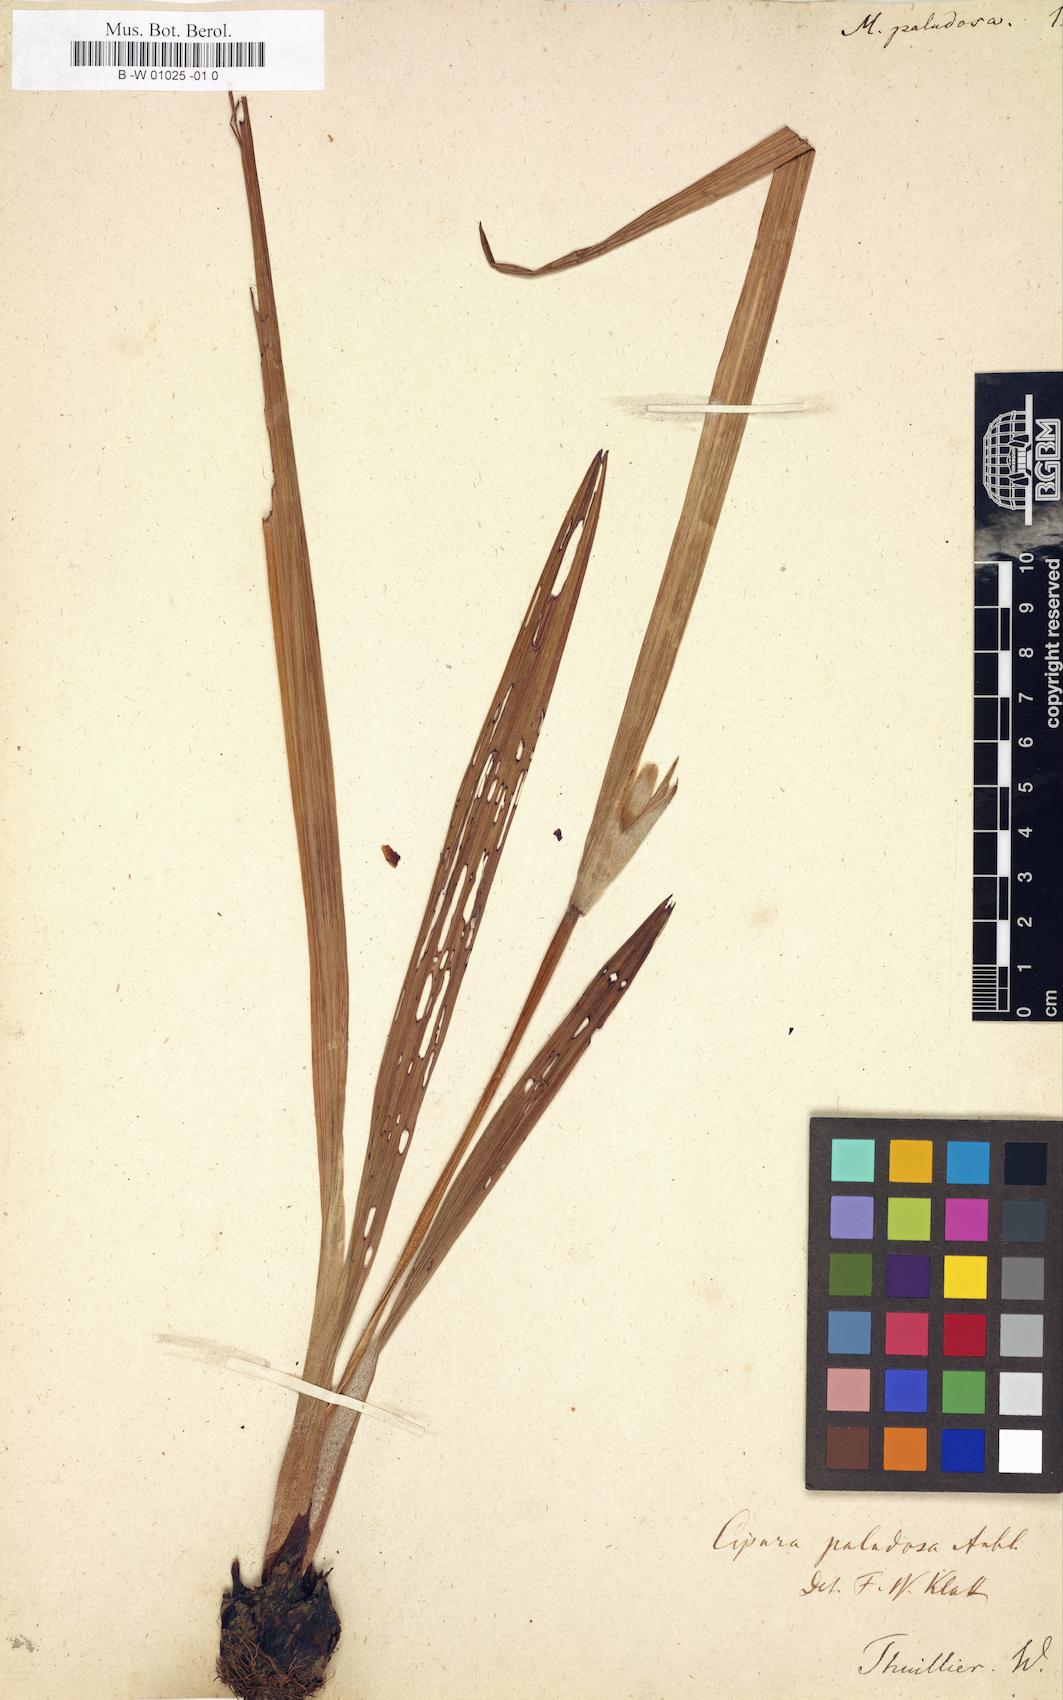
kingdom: Plantae
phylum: Tracheophyta
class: Liliopsida
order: Asparagales
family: Iridaceae
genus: Cipura
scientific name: Cipura paludosa
